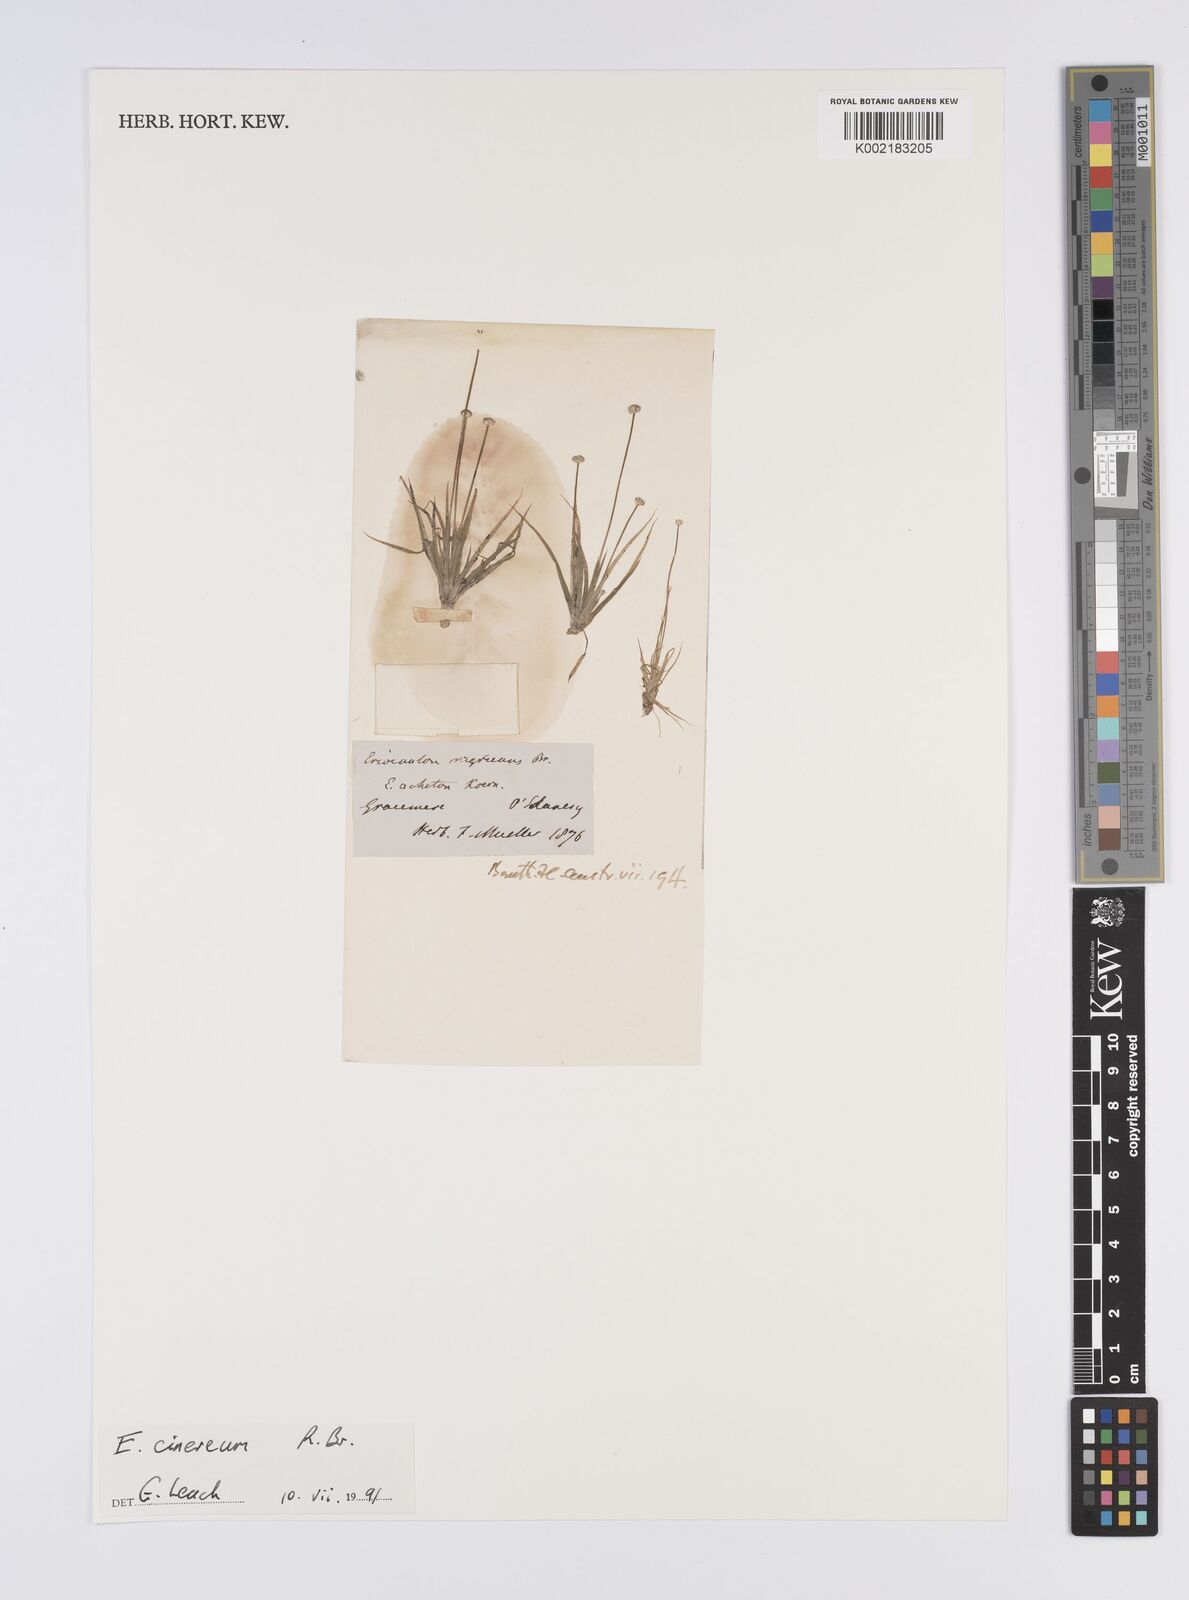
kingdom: Plantae
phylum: Tracheophyta
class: Liliopsida
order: Poales
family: Eriocaulaceae
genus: Eriocaulon
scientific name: Eriocaulon cinereum
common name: Ashy pipewort
